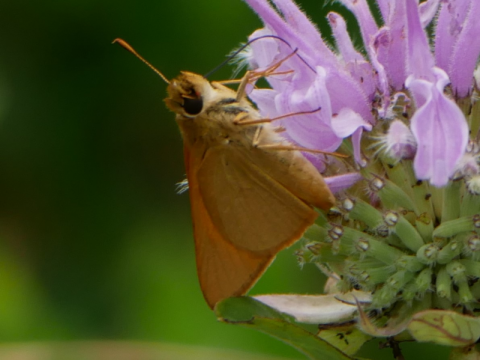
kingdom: Animalia
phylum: Arthropoda
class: Insecta
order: Lepidoptera
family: Hesperiidae
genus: Atrytone
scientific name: Atrytone delaware
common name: Delaware Skipper
